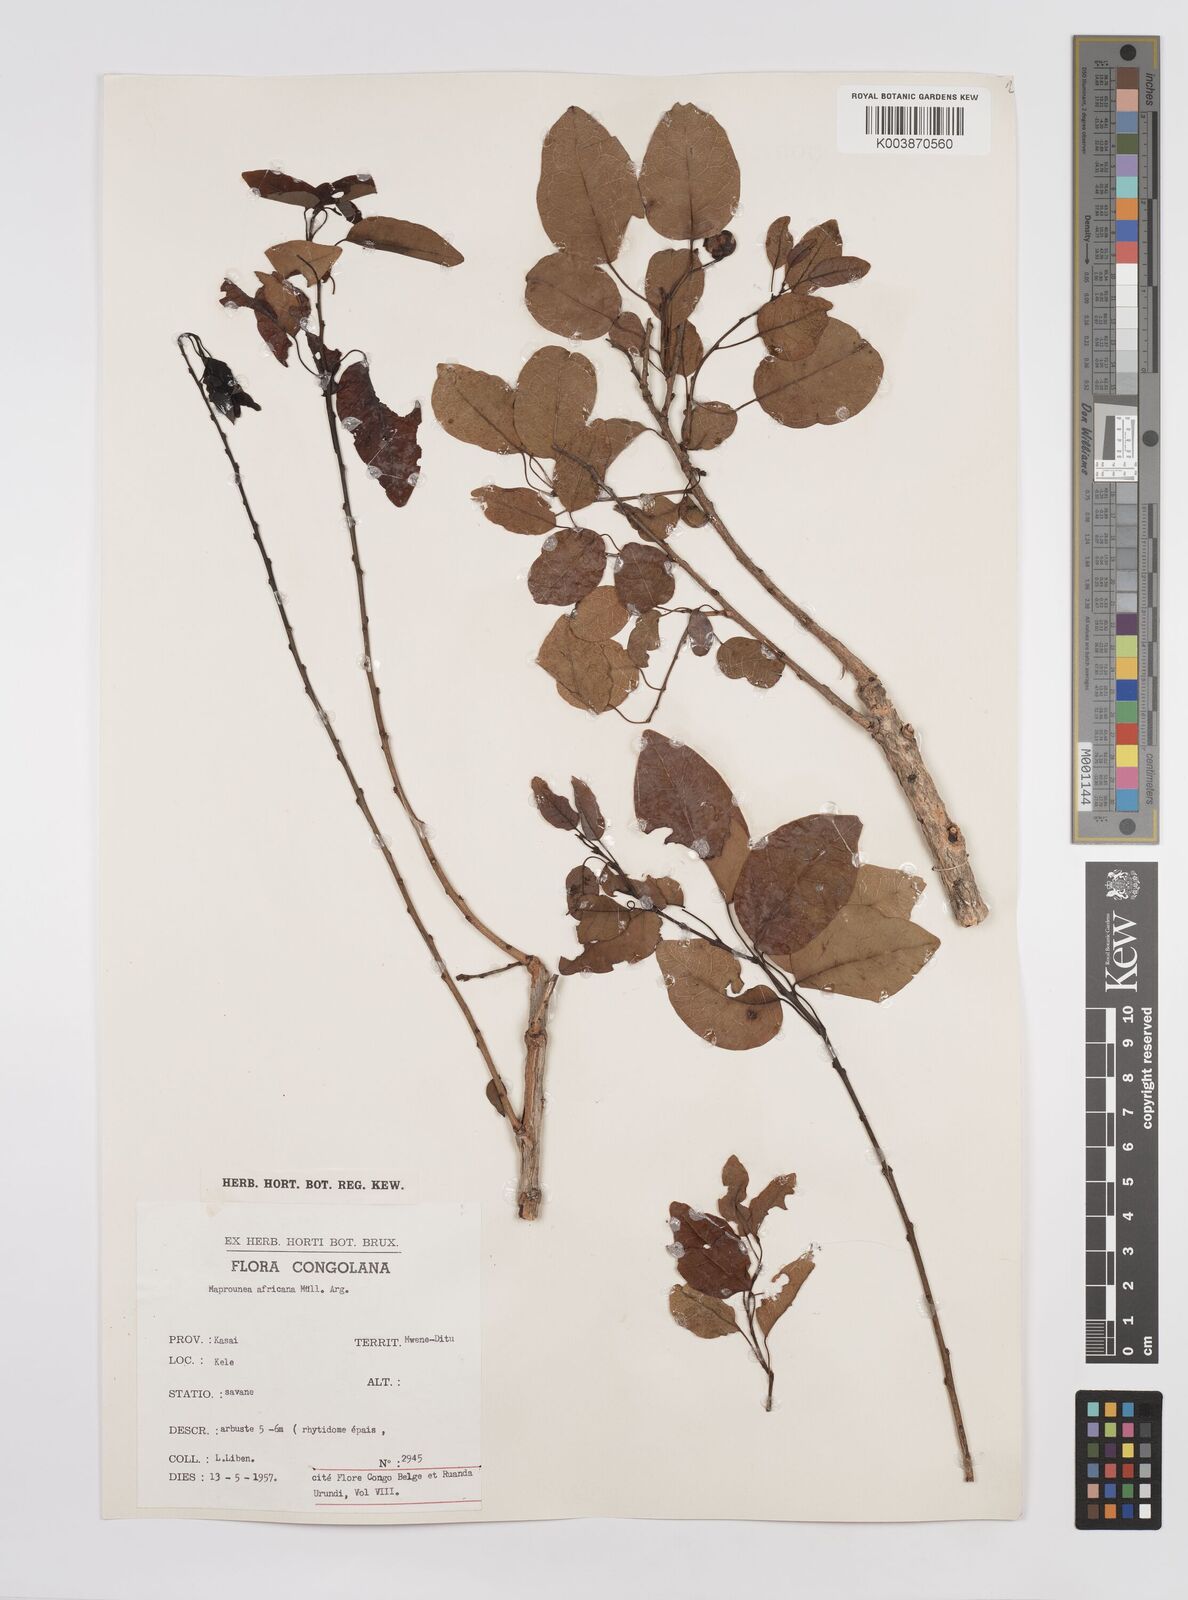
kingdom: Plantae
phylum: Tracheophyta
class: Magnoliopsida
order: Malpighiales
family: Euphorbiaceae
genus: Maprounea
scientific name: Maprounea africana
